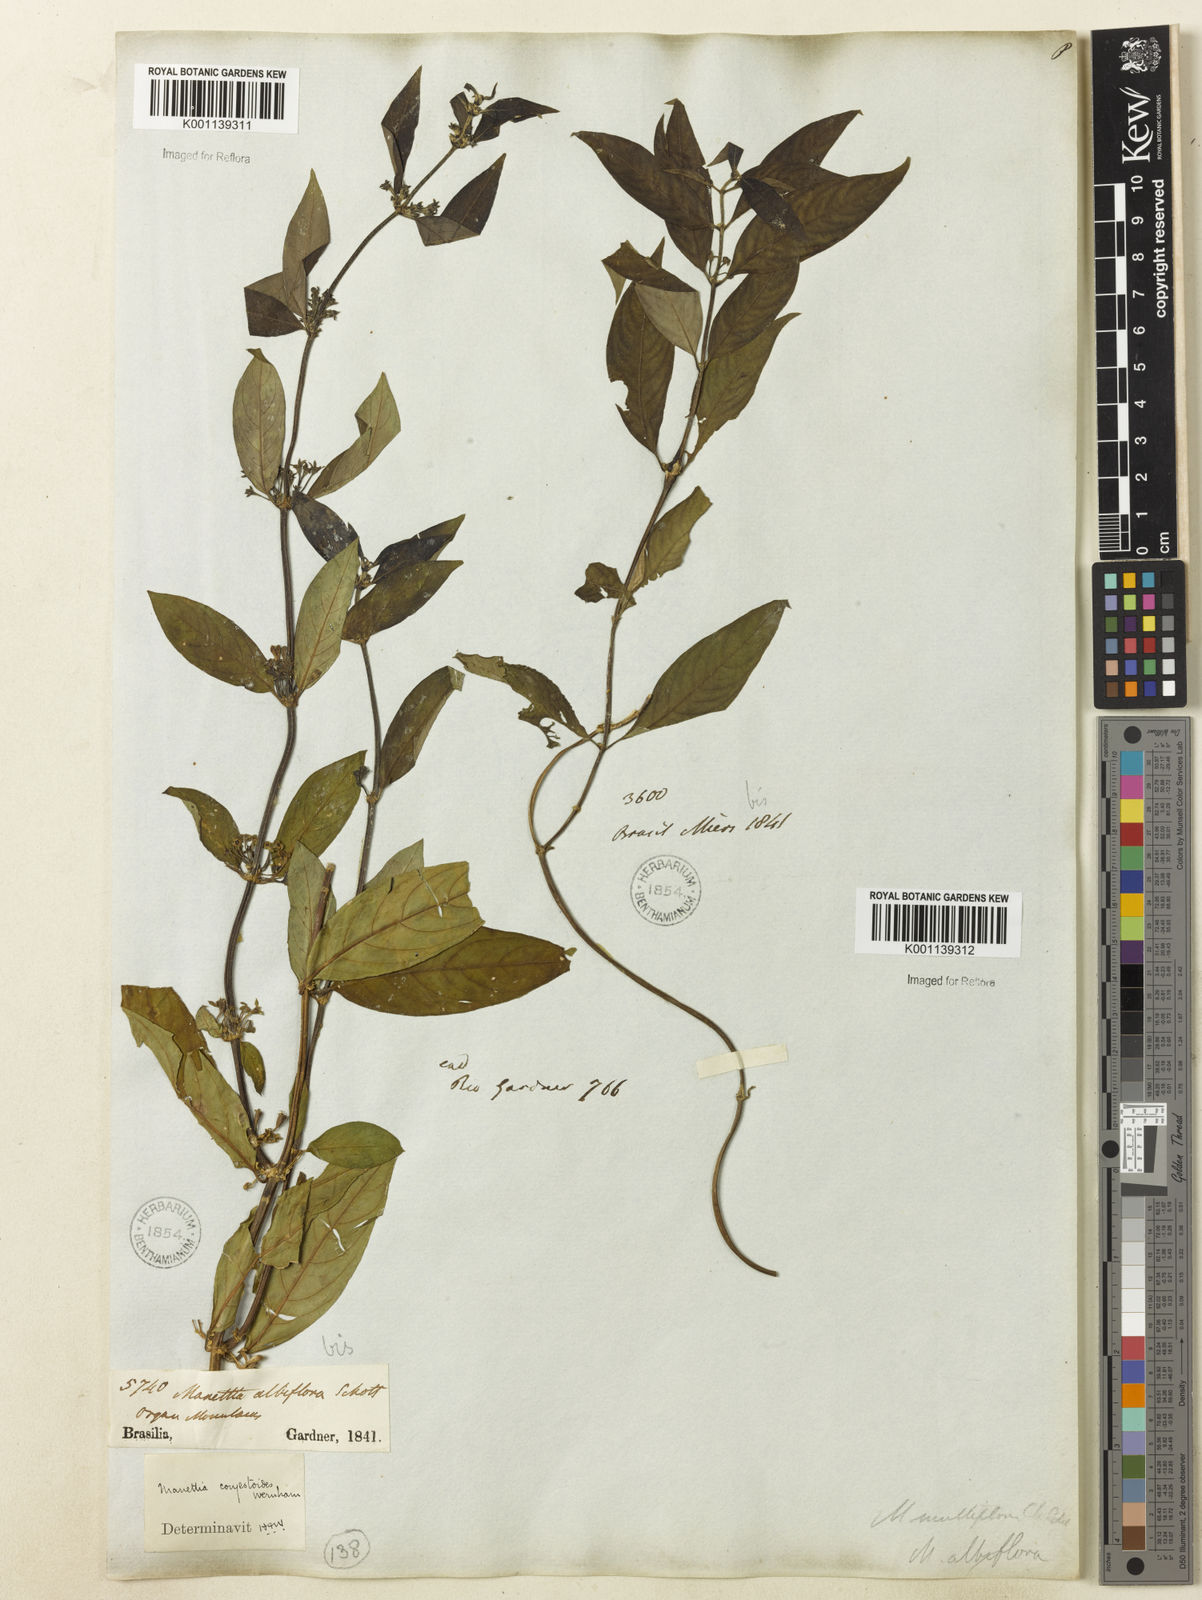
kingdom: Plantae
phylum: Tracheophyta
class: Magnoliopsida
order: Gentianales
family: Rubiaceae
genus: Manettia
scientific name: Manettia congestoides
